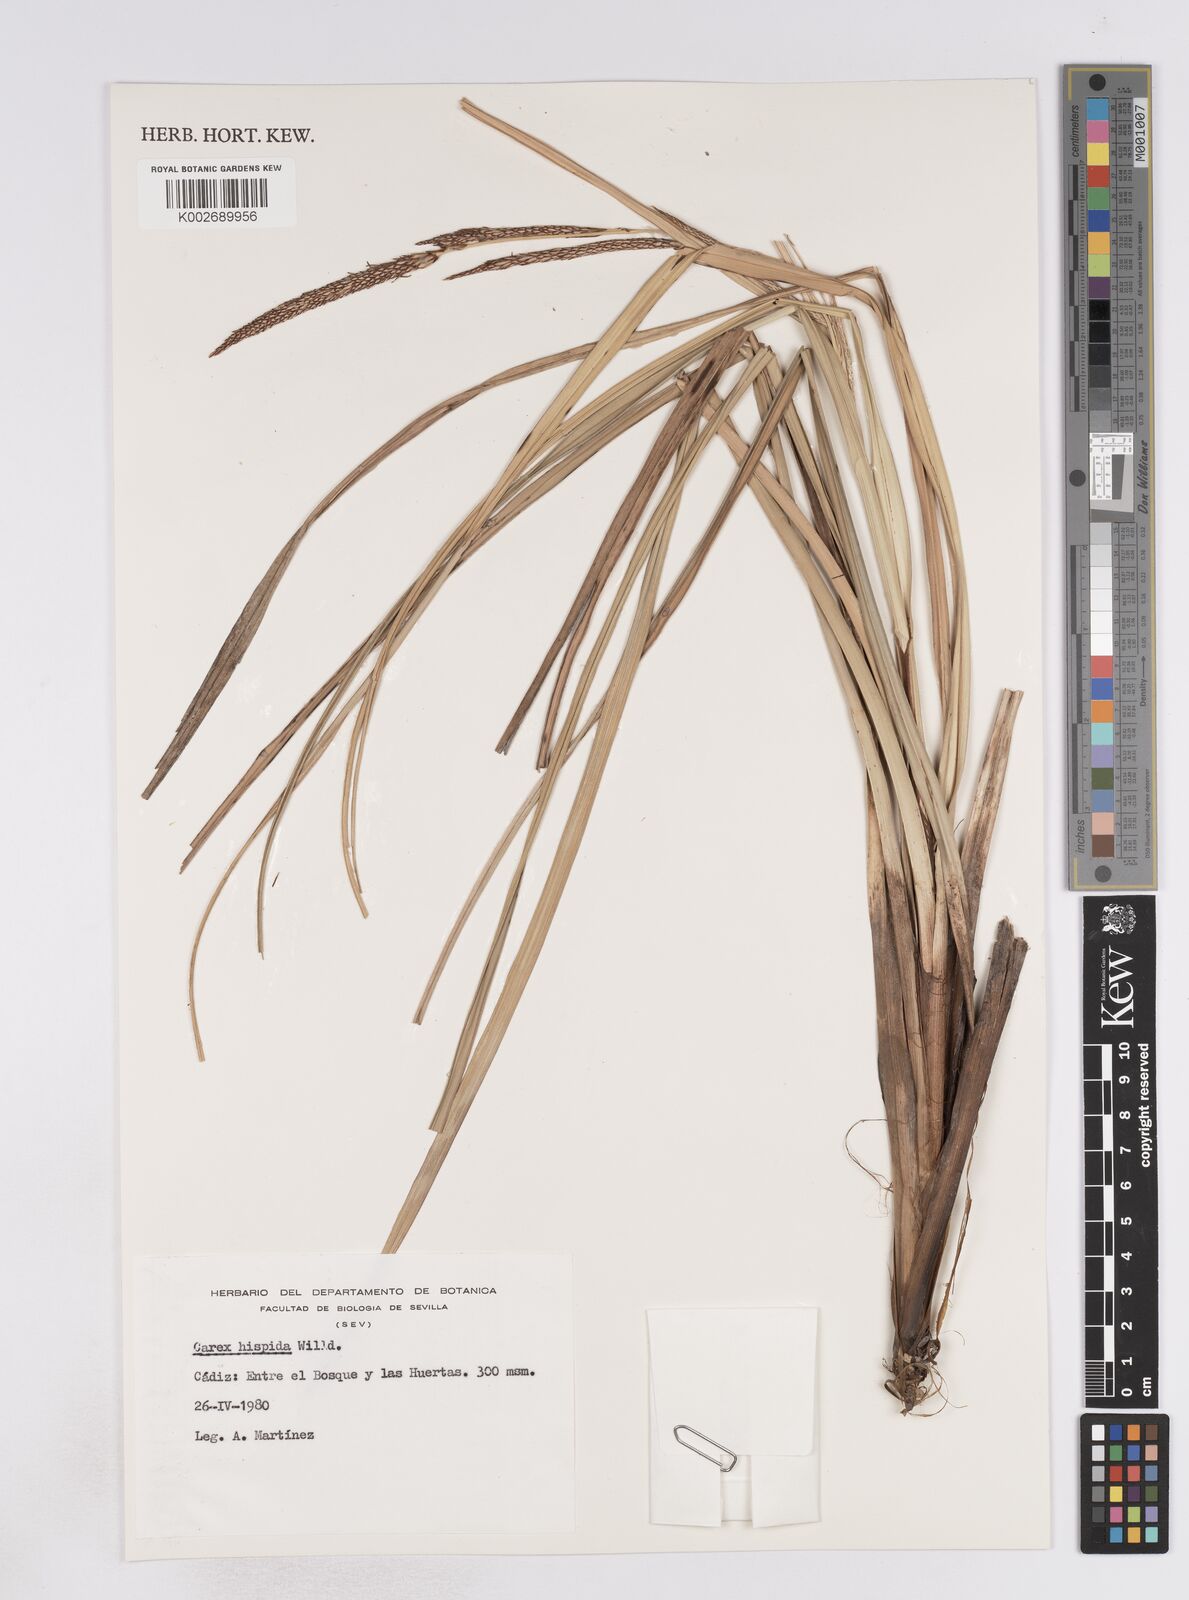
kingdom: Plantae
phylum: Tracheophyta
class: Liliopsida
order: Poales
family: Cyperaceae
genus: Carex
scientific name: Carex hispida
